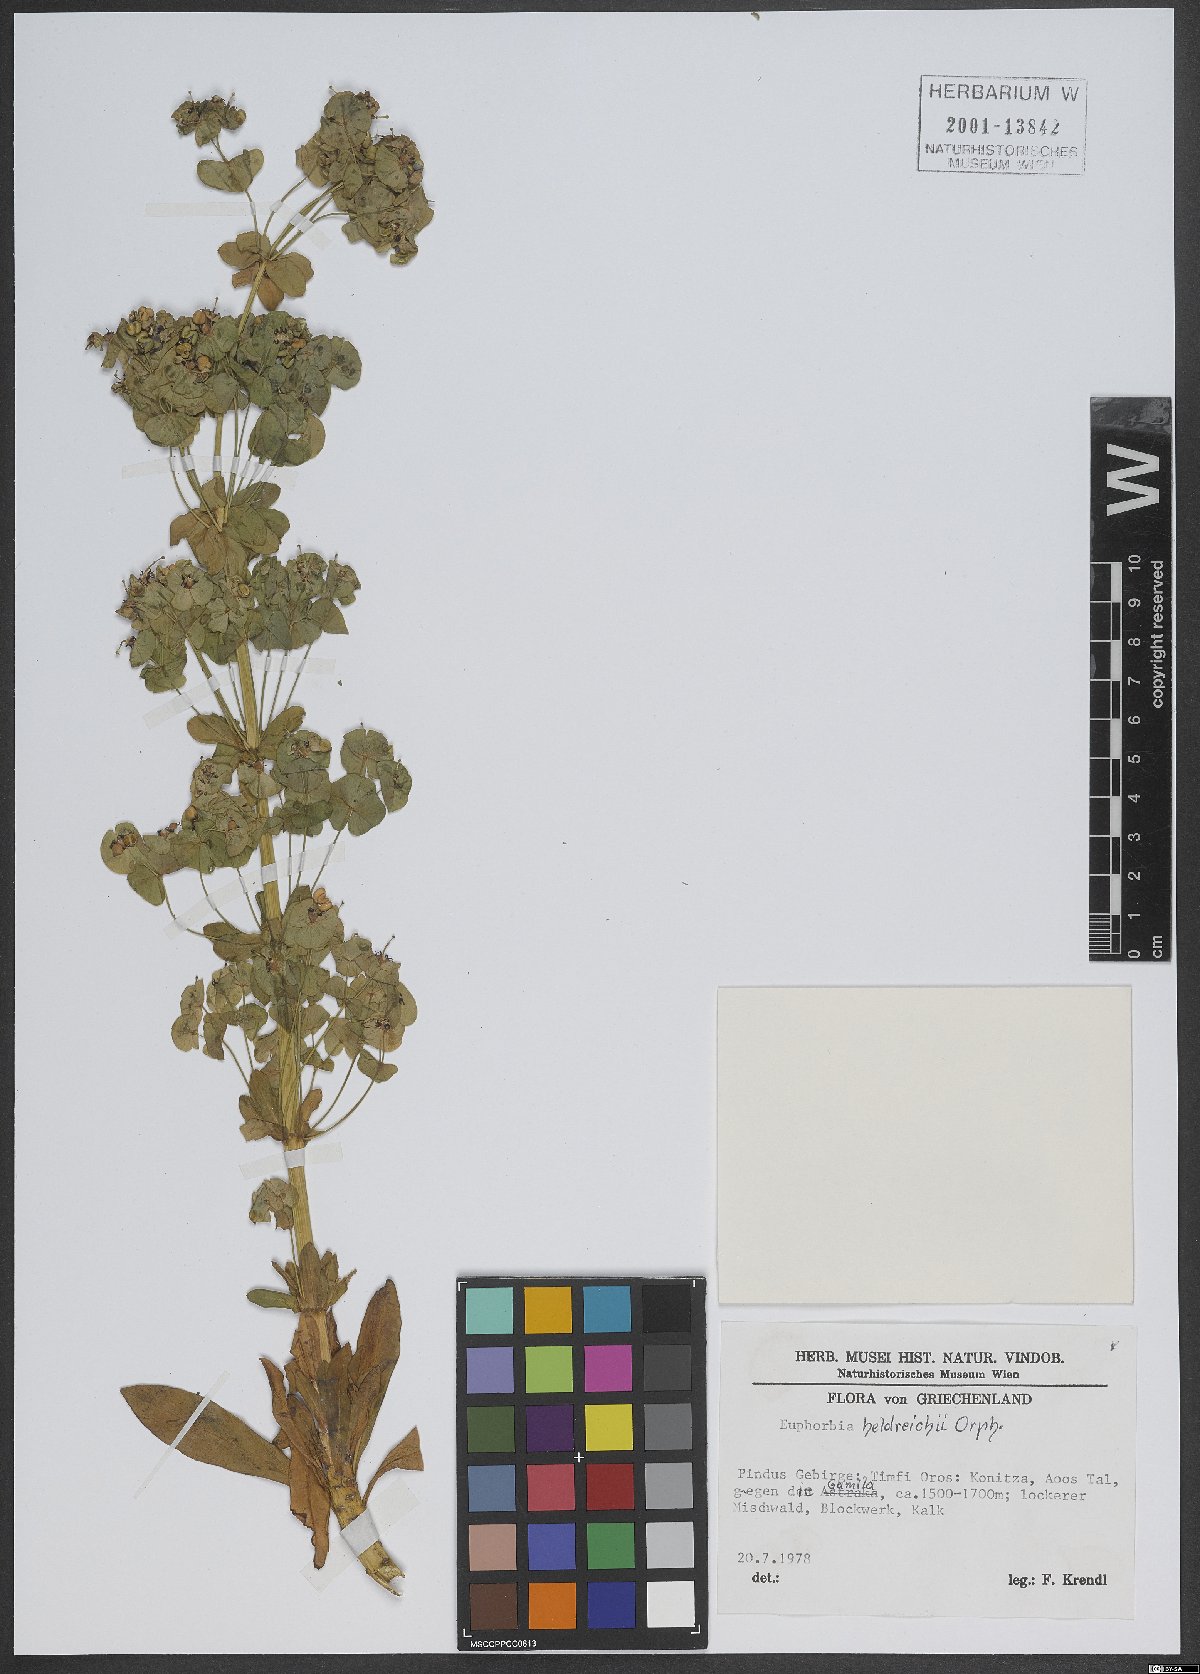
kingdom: Plantae
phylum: Tracheophyta
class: Magnoliopsida
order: Malpighiales
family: Euphorbiaceae
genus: Euphorbia
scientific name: Euphorbia heldreichii
